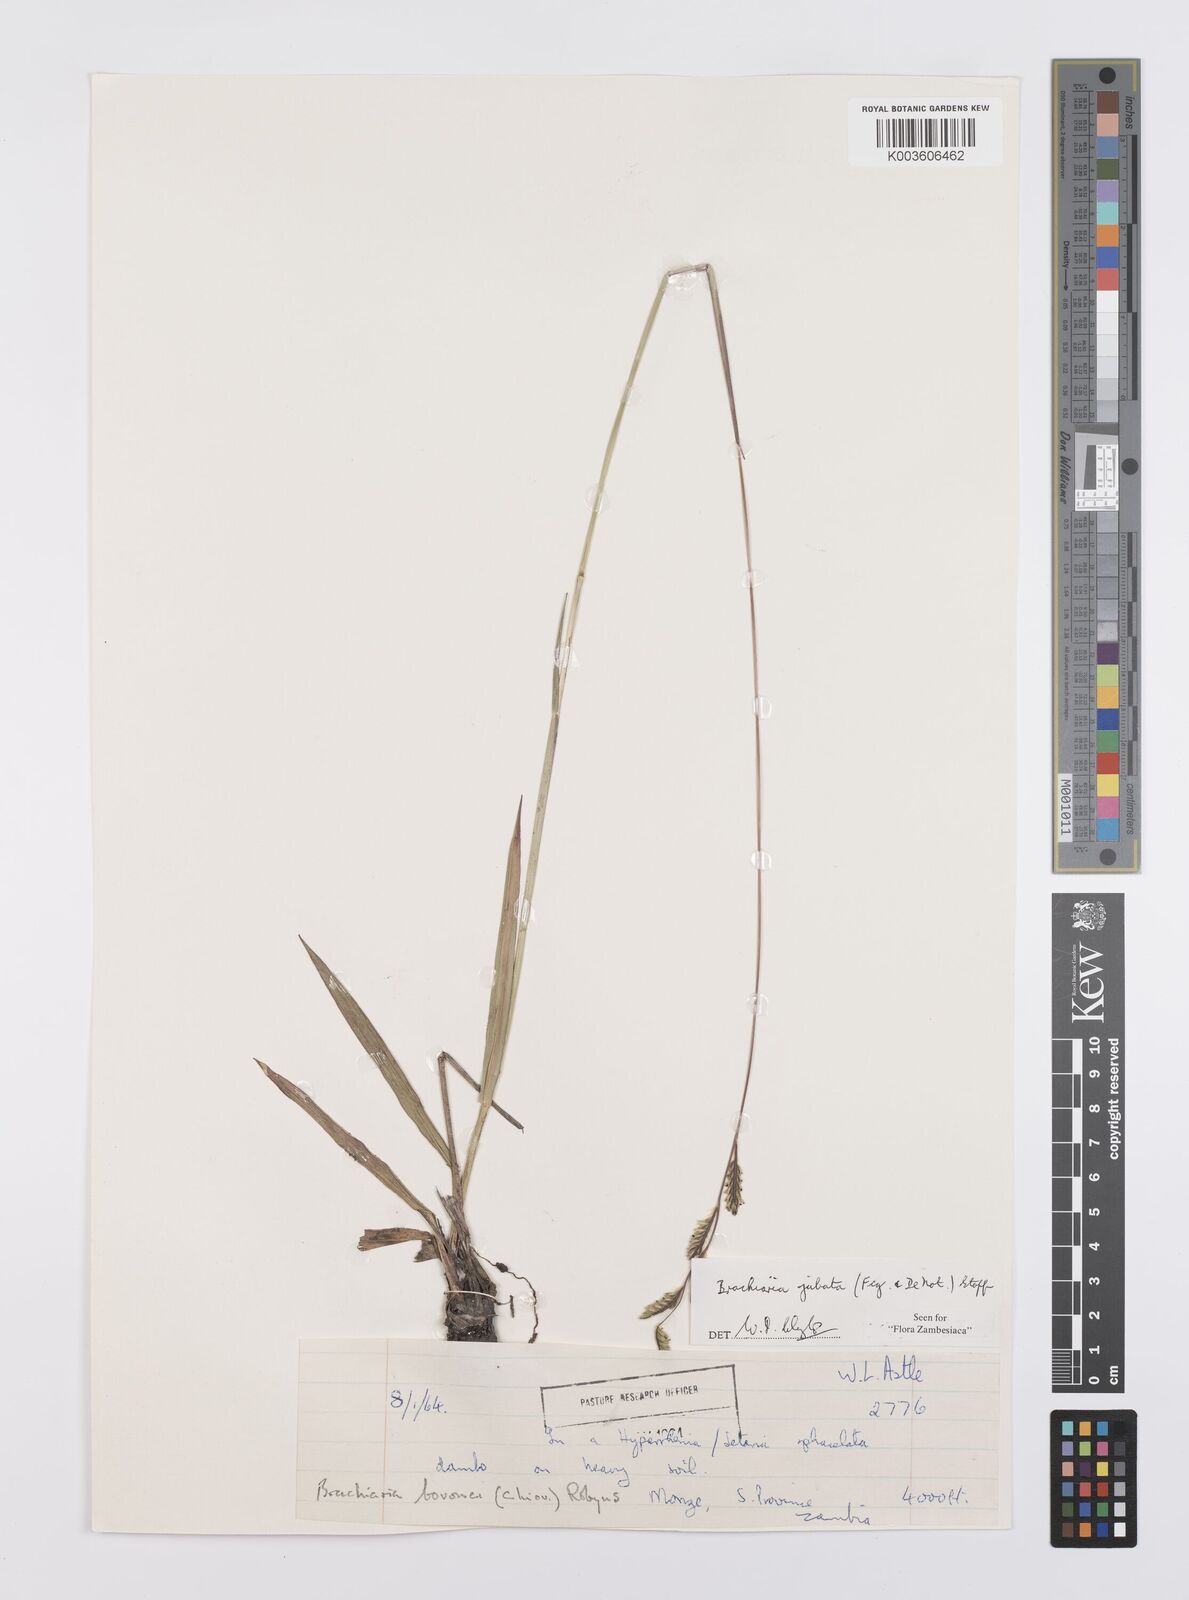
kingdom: Plantae
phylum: Tracheophyta
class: Liliopsida
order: Poales
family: Poaceae
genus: Urochloa
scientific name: Urochloa jubata
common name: Buffalograss
